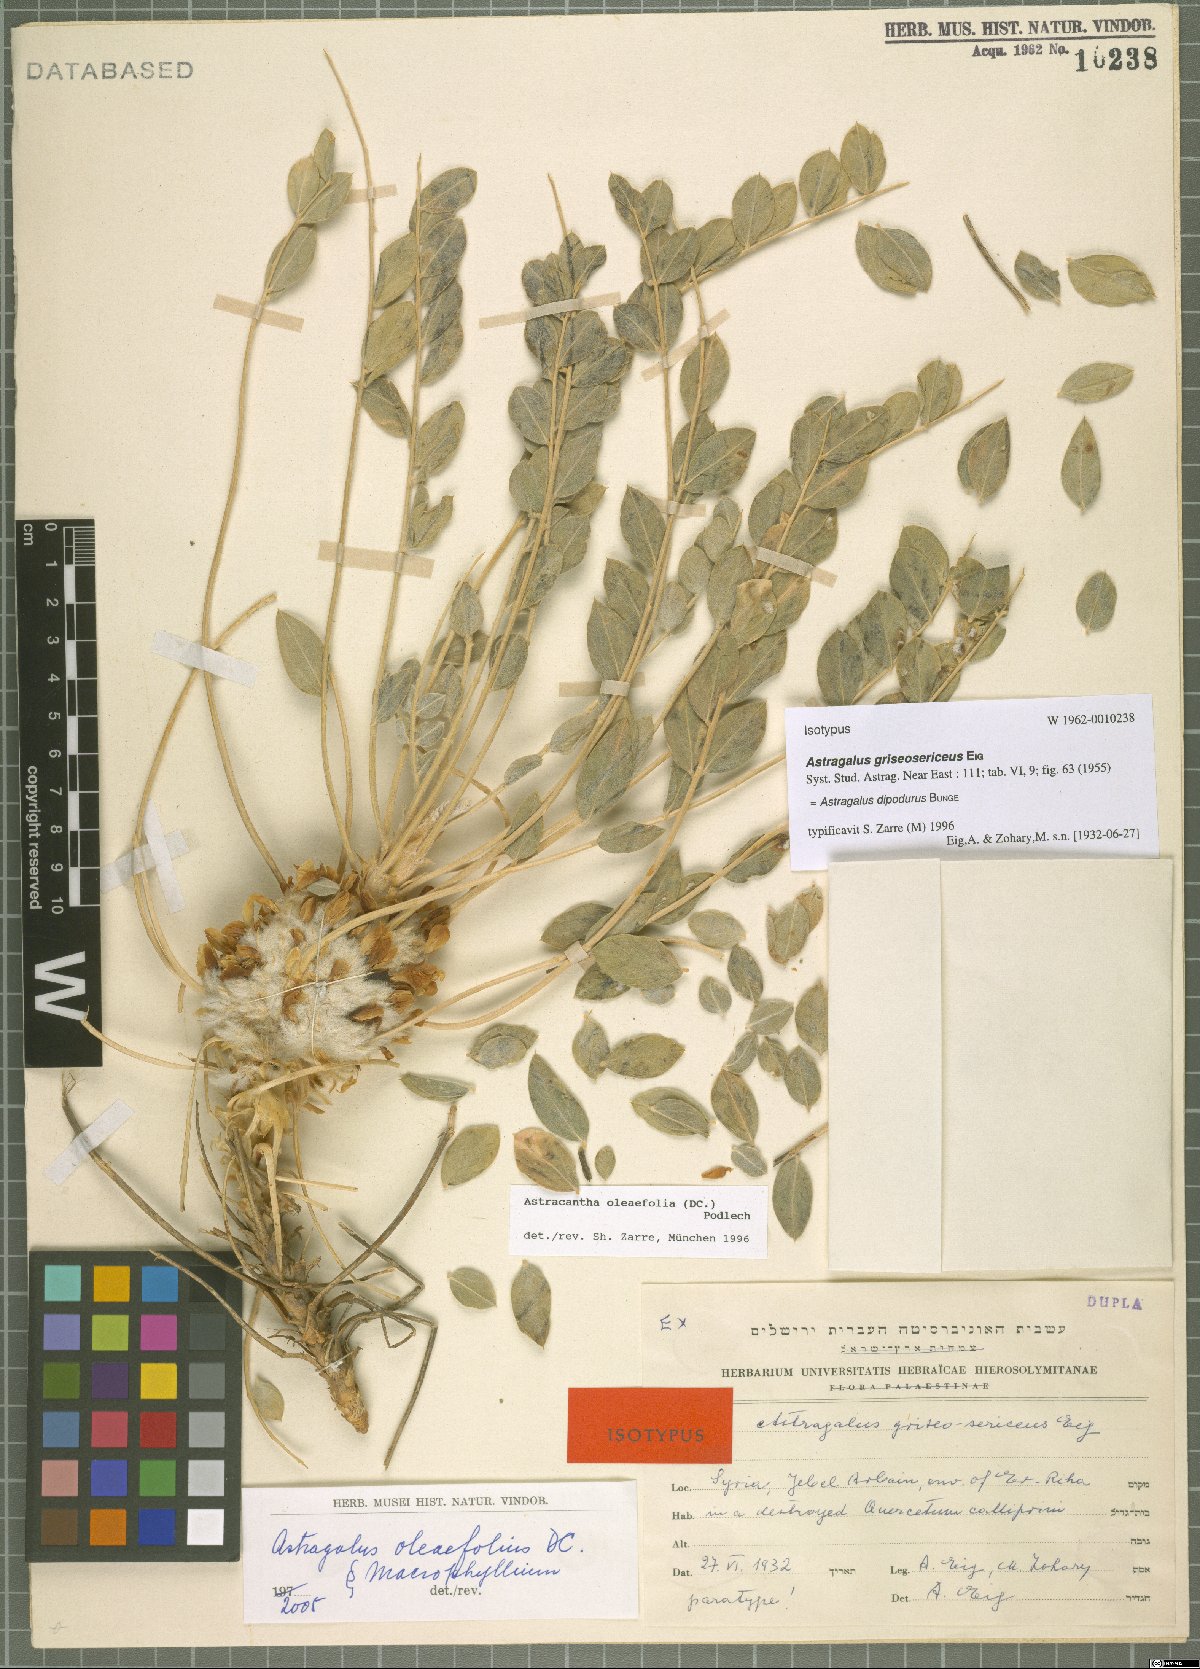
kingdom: Plantae
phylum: Tracheophyta
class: Magnoliopsida
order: Fabales
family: Fabaceae
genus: Astragalus
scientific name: Astragalus dipodurus
